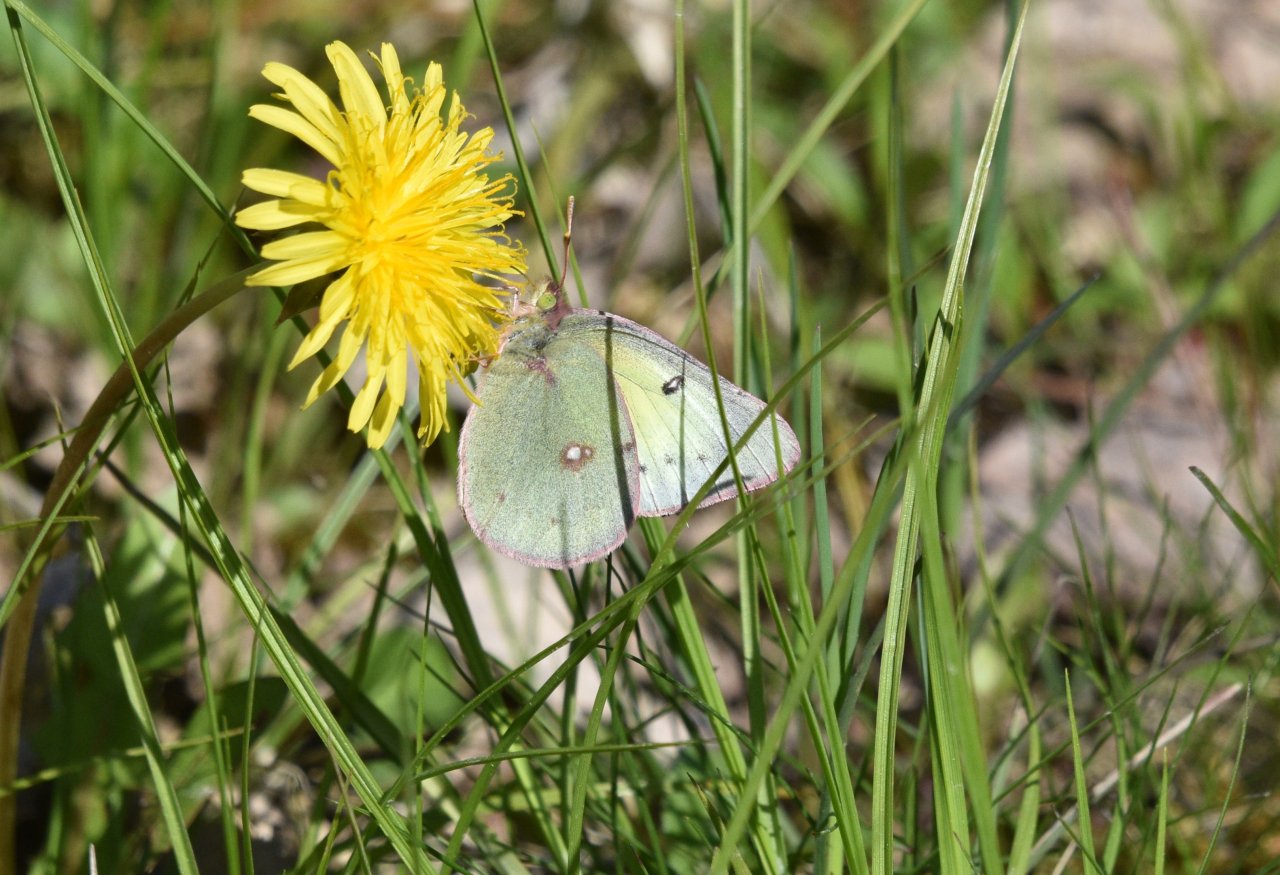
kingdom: Animalia
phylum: Arthropoda
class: Insecta
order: Lepidoptera
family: Pieridae
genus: Colias
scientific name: Colias philodice
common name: Clouded Sulphur
